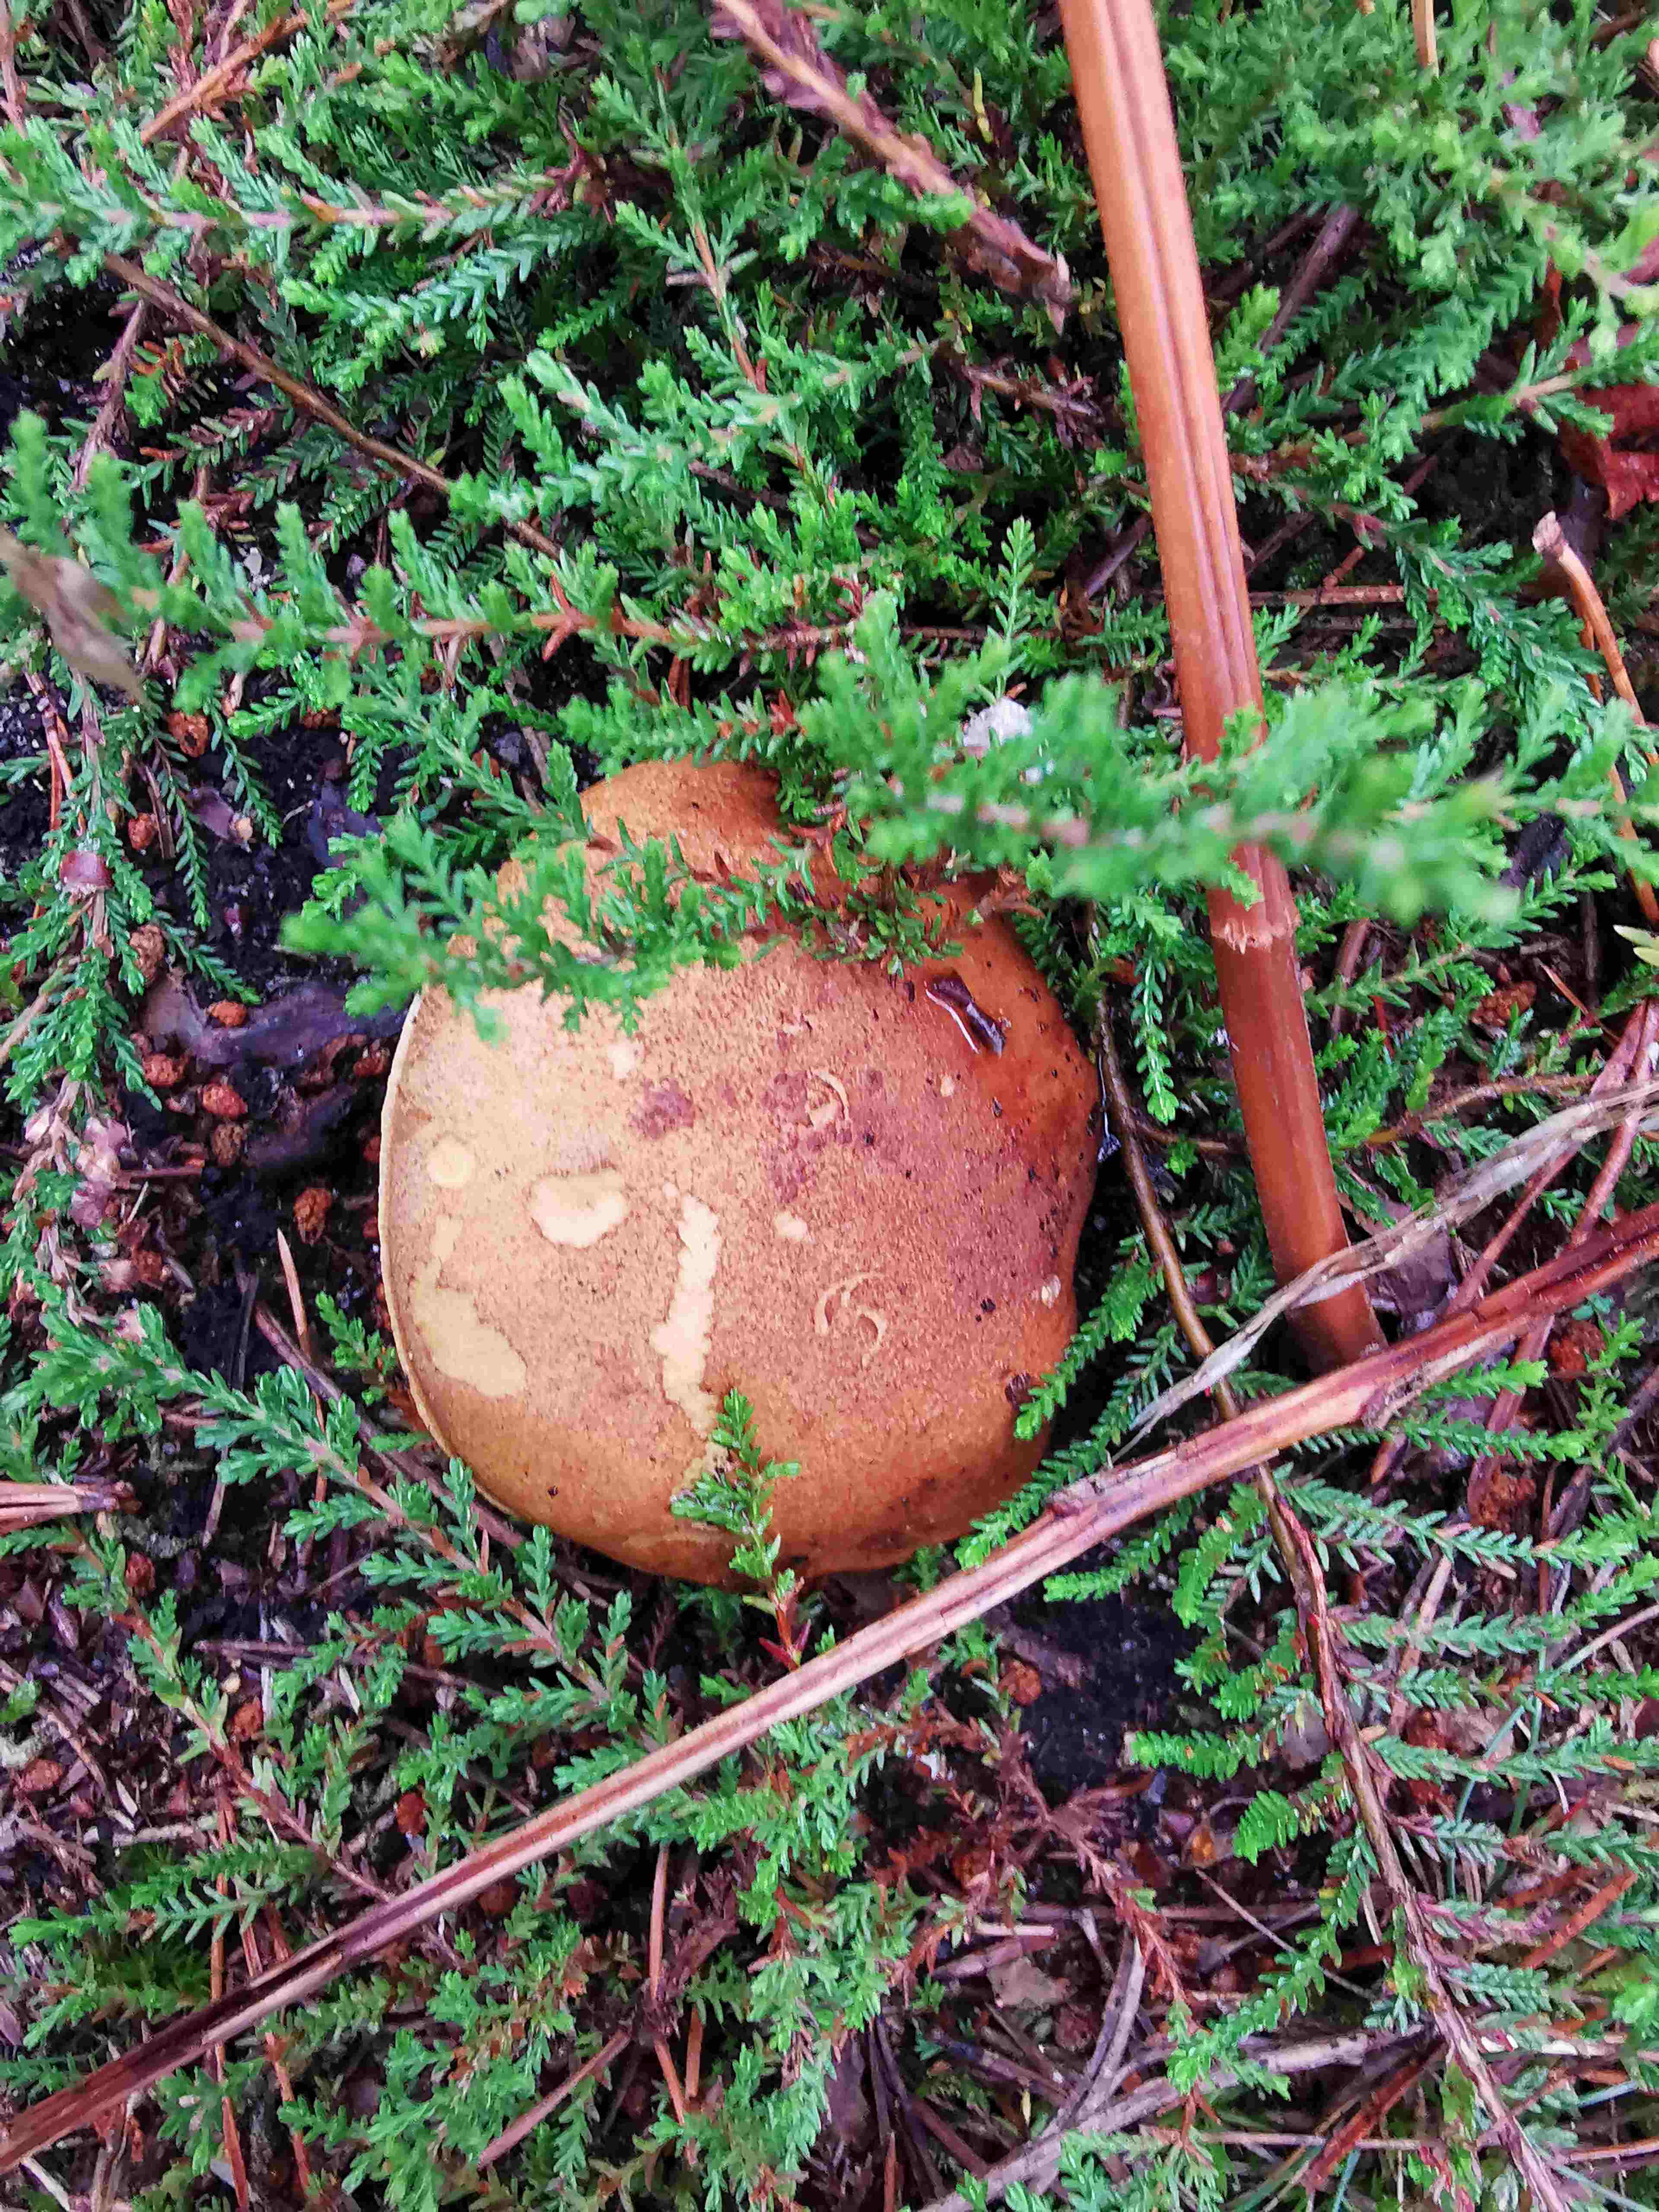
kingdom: Fungi
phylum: Basidiomycota
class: Agaricomycetes
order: Boletales
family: Boletaceae
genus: Imleria
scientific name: Imleria badia
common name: brunstokket rørhat
